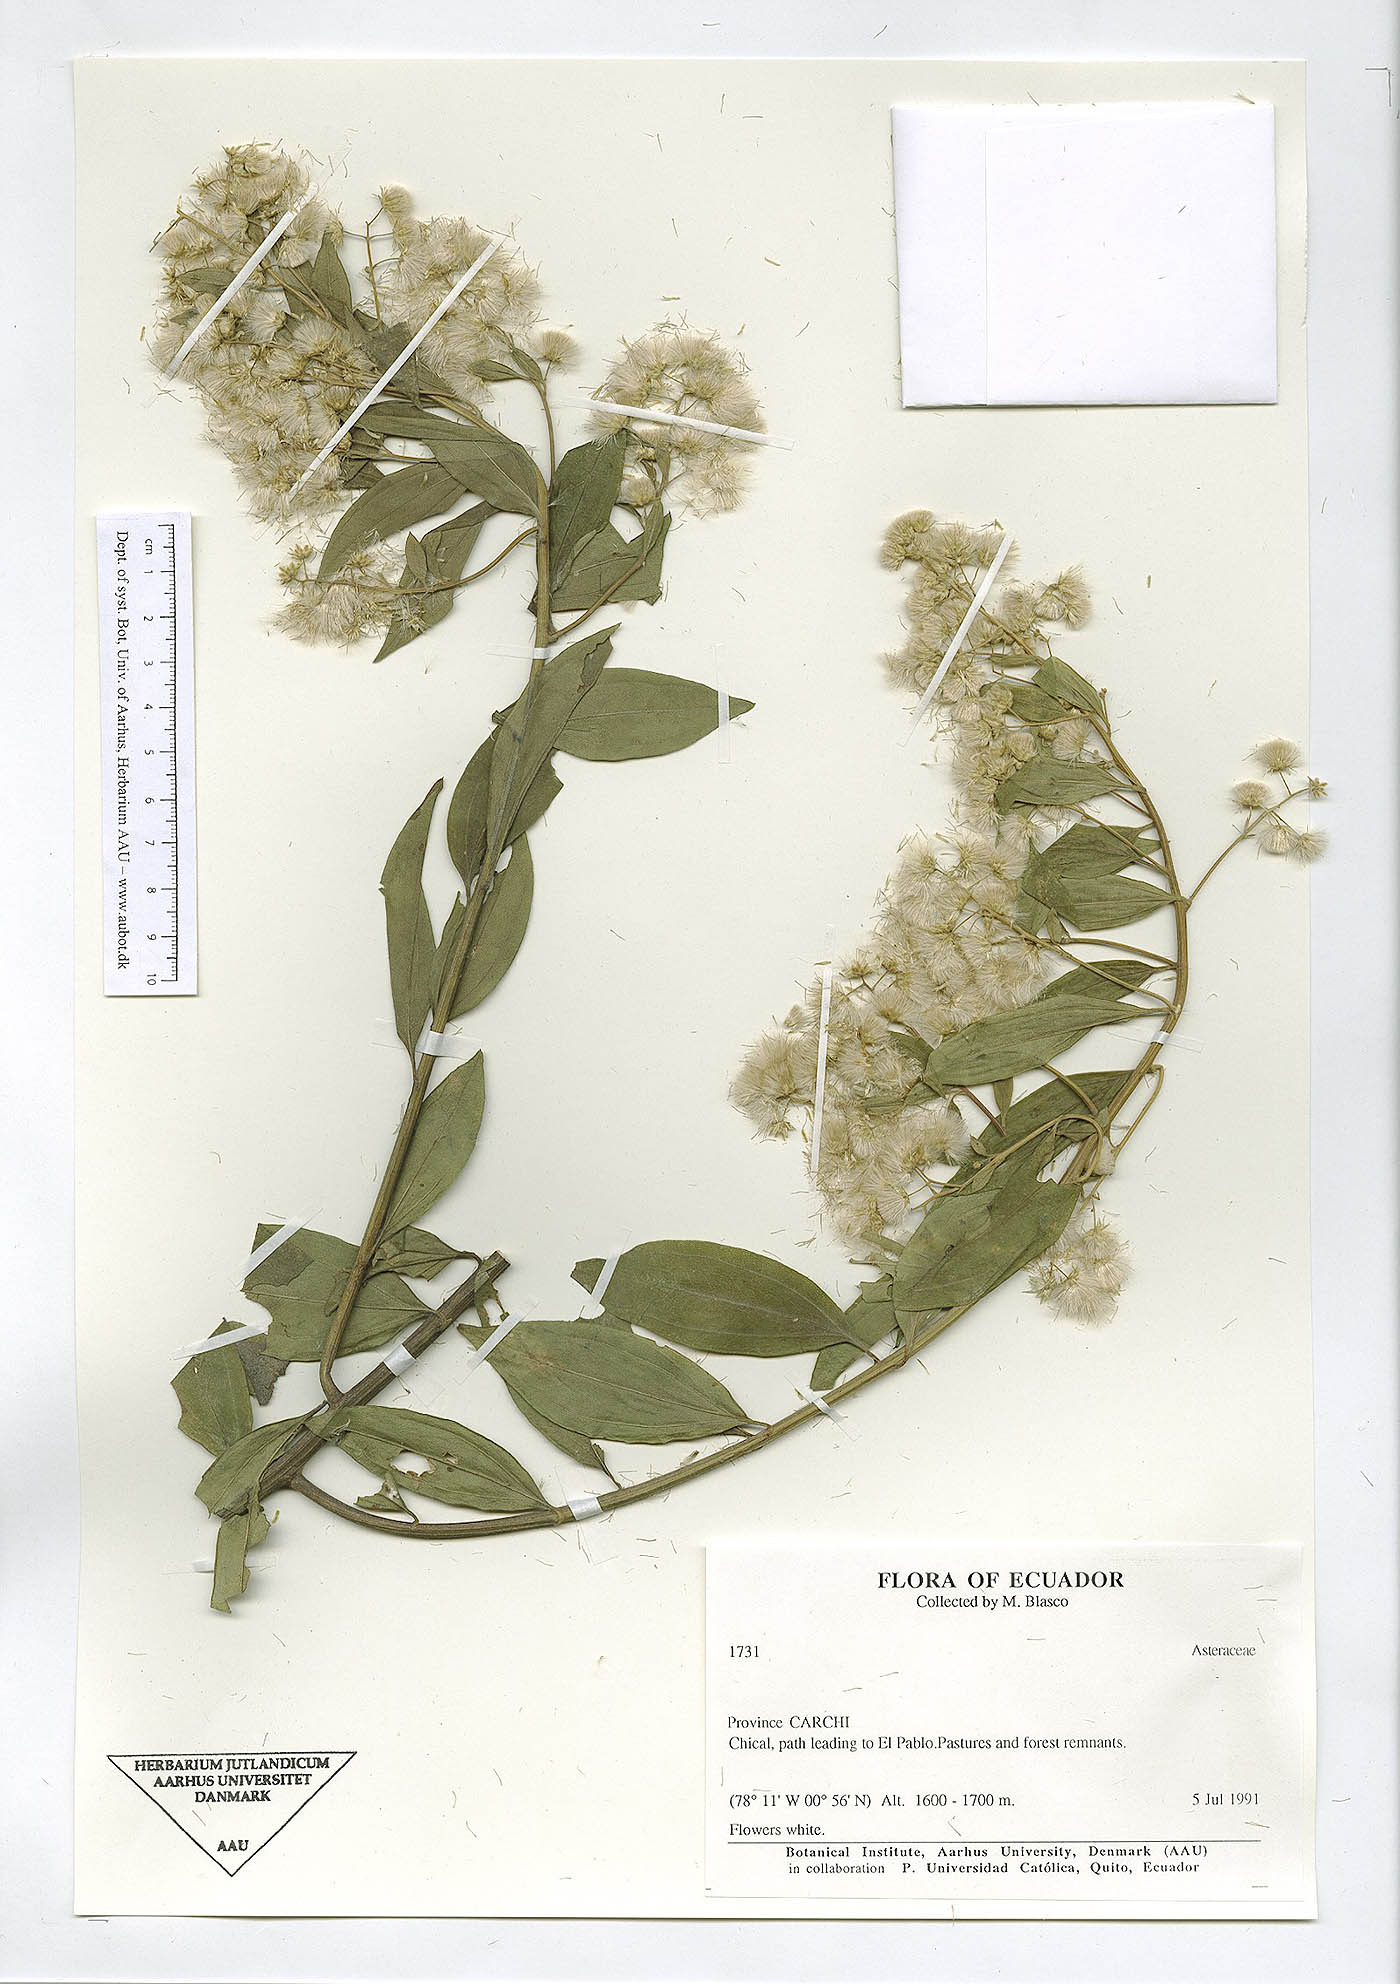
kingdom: Plantae
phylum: Tracheophyta
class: Magnoliopsida
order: Asterales
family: Asteraceae
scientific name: Asteraceae
